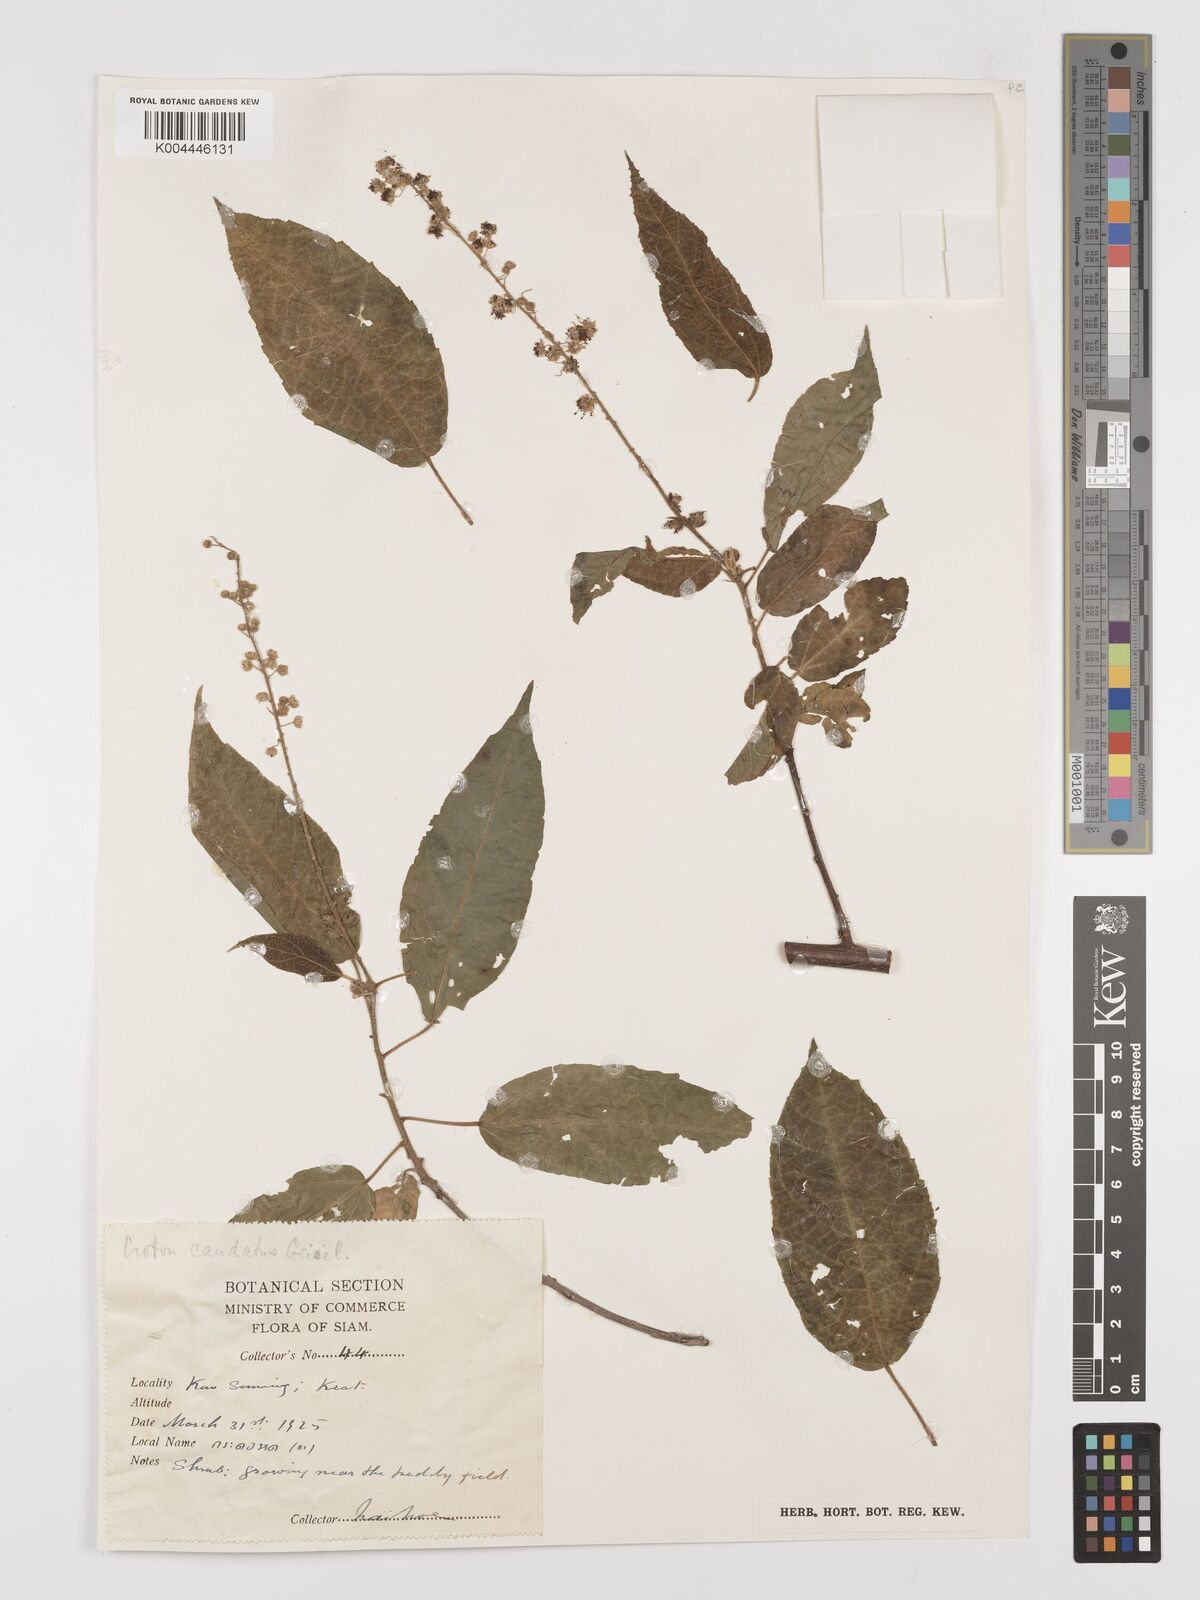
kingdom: Plantae
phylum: Tracheophyta
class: Magnoliopsida
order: Malpighiales
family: Euphorbiaceae
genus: Croton
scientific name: Croton caudatus
